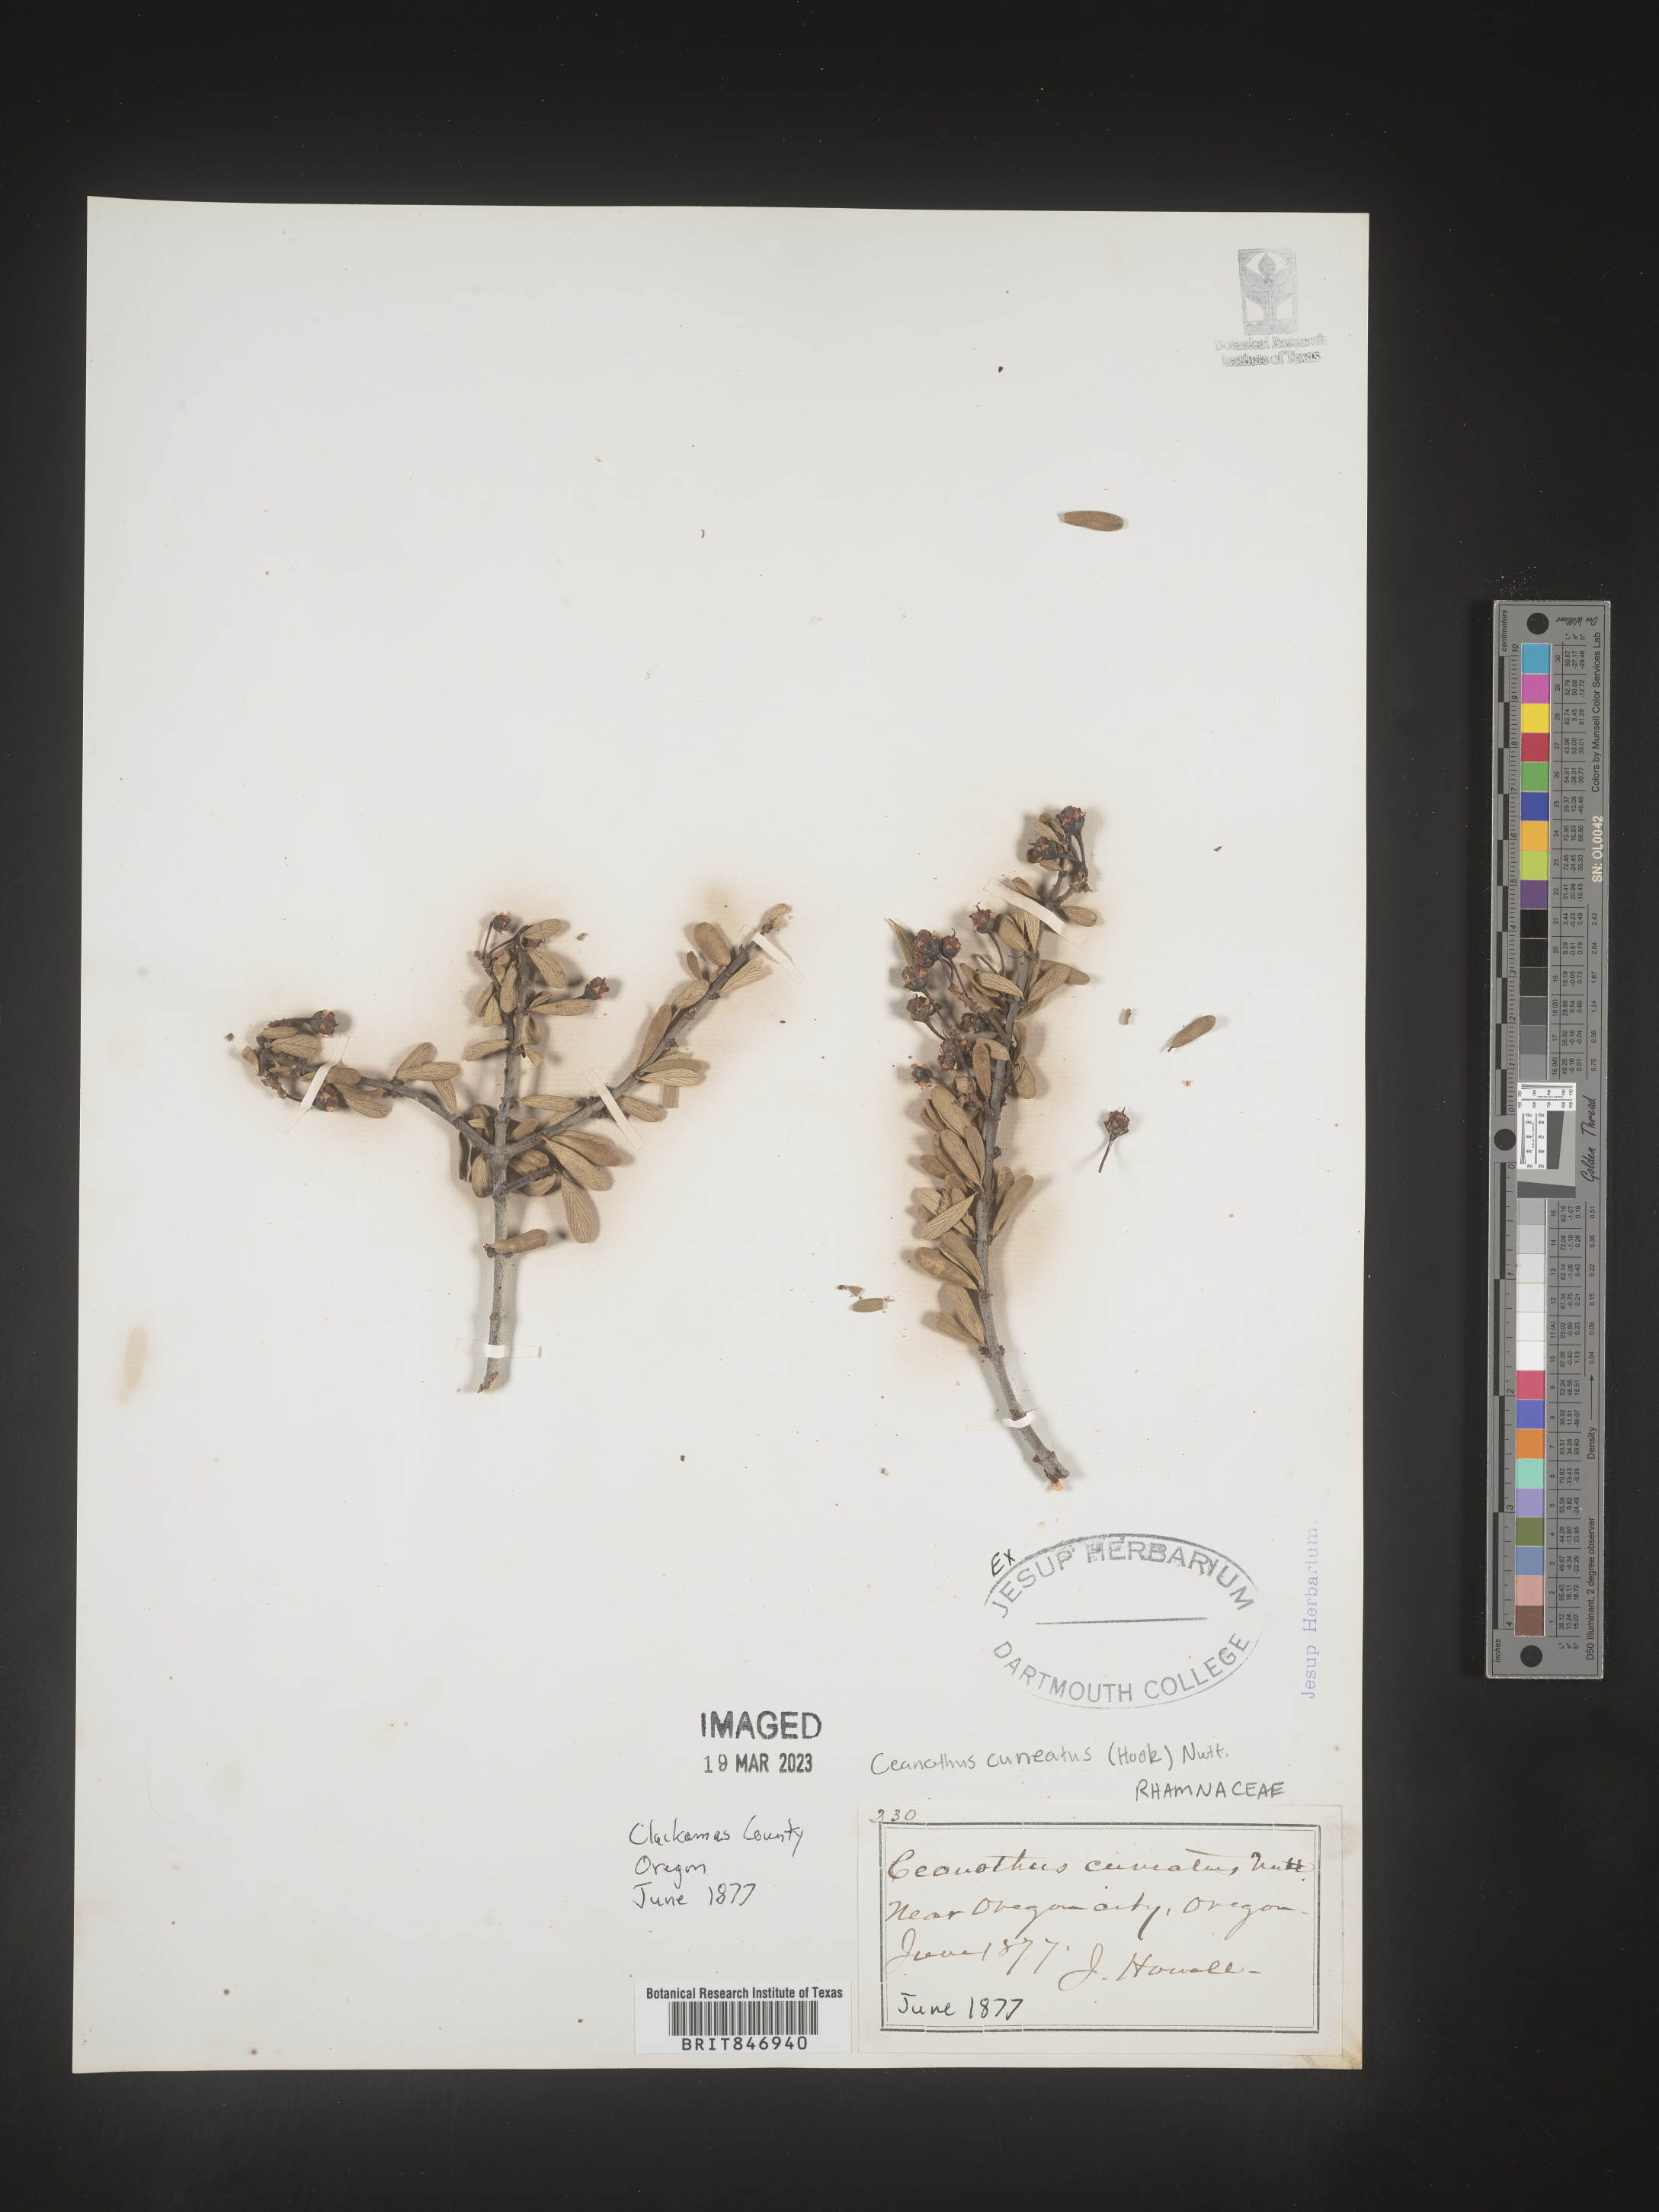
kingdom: Plantae
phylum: Tracheophyta
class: Magnoliopsida
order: Rosales
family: Rhamnaceae
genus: Ceanothus
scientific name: Ceanothus cuneatus
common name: Cuneate ceanothus
